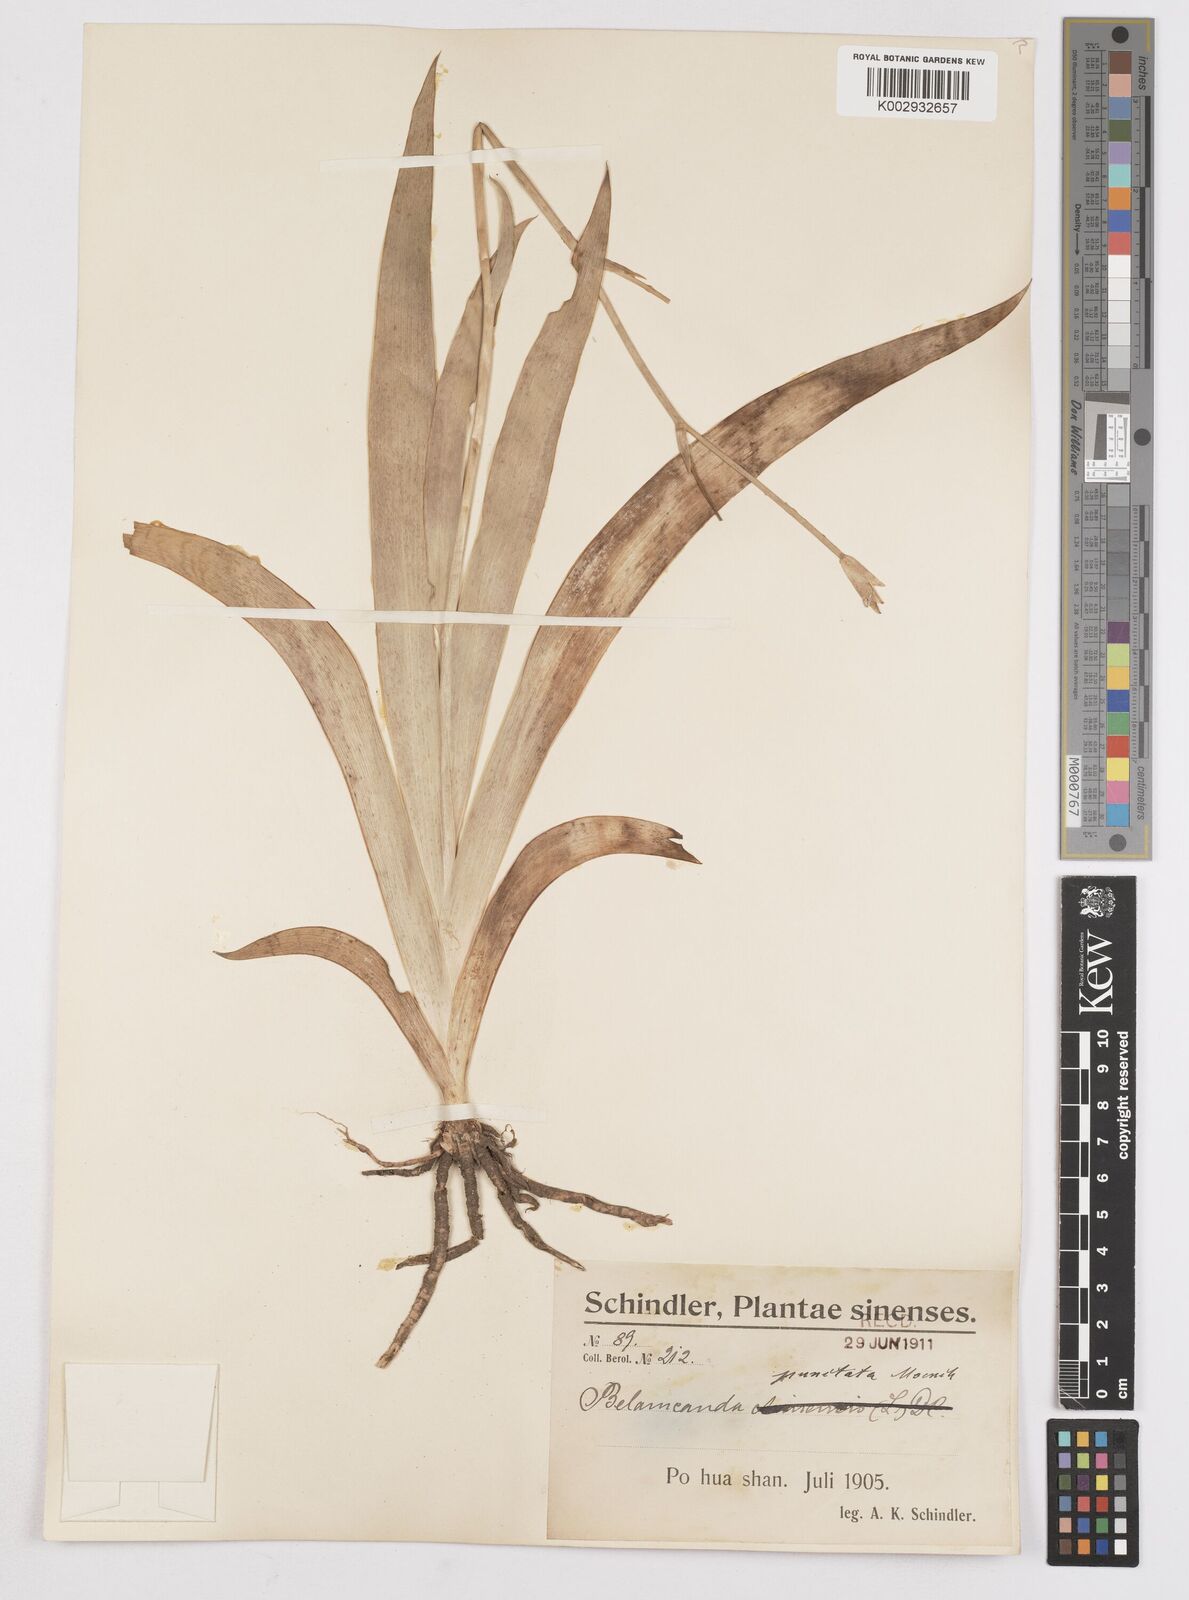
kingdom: Plantae
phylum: Tracheophyta
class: Liliopsida
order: Asparagales
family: Iridaceae
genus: Iris
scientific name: Iris
